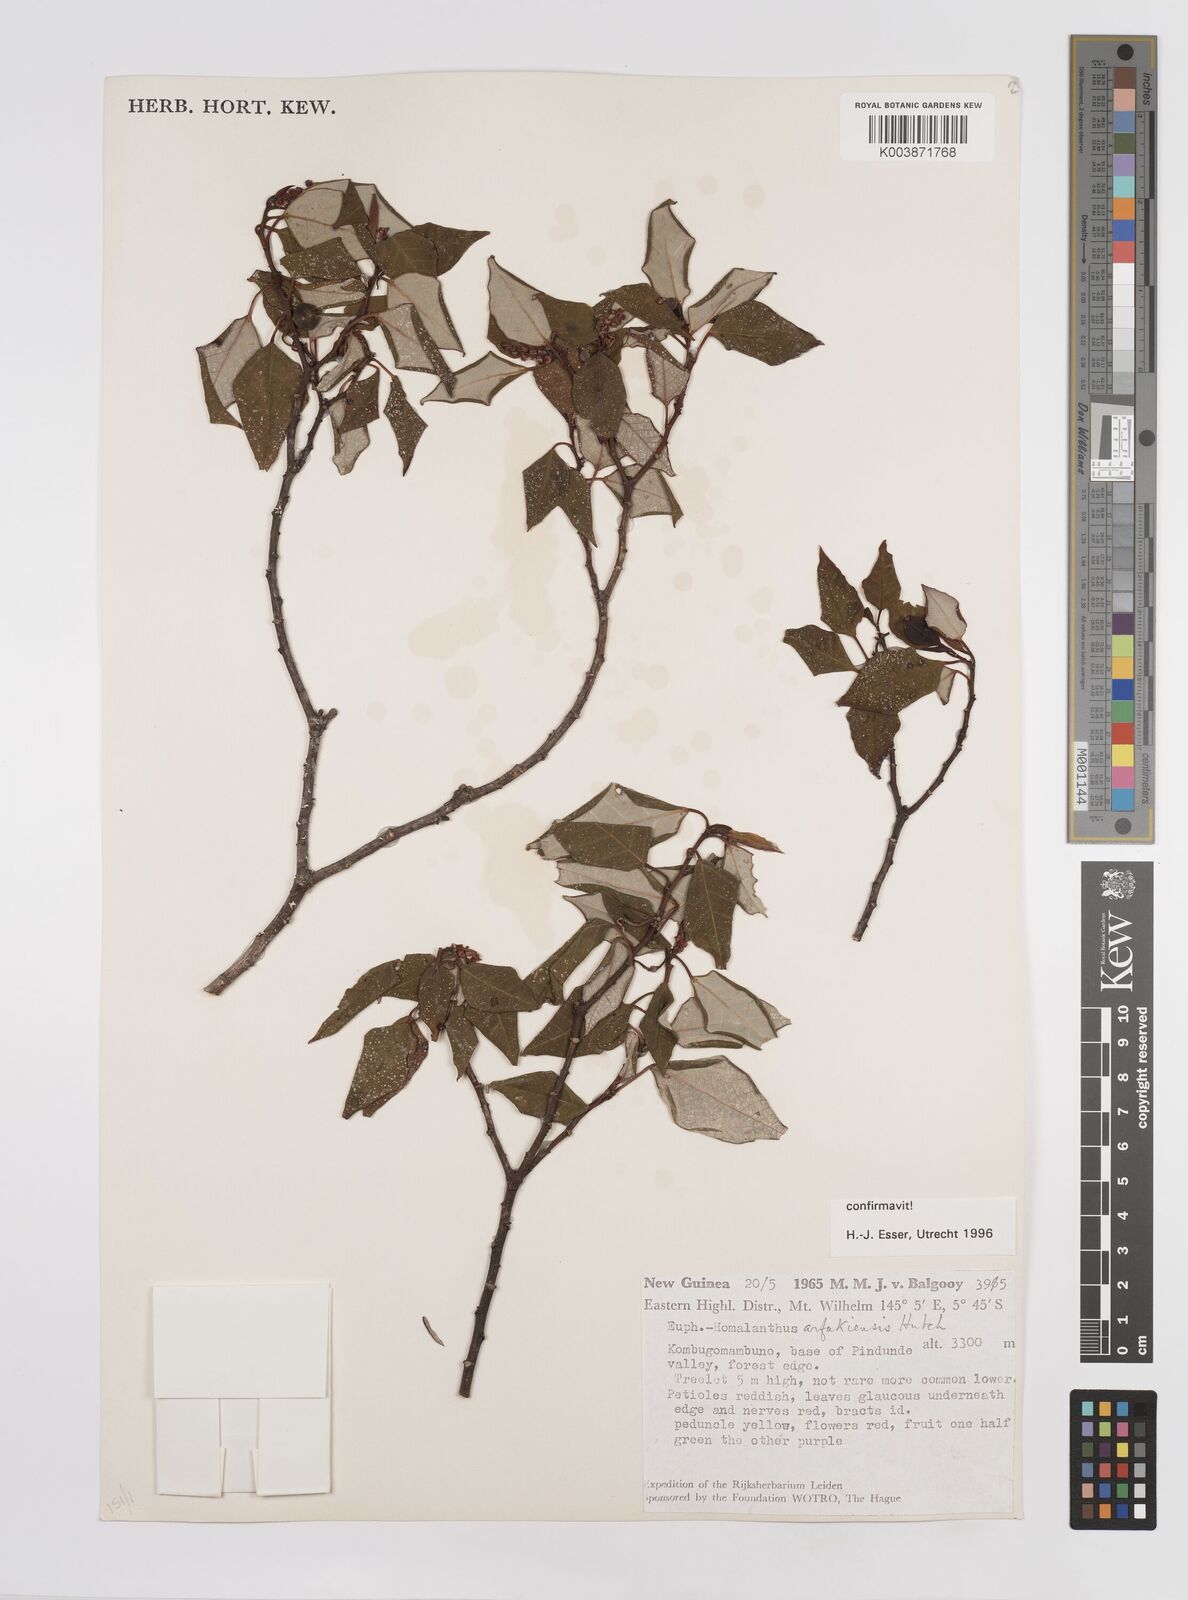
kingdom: Plantae
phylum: Tracheophyta
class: Magnoliopsida
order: Malpighiales
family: Euphorbiaceae
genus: Homalanthus
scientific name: Homalanthus arfakiensis
